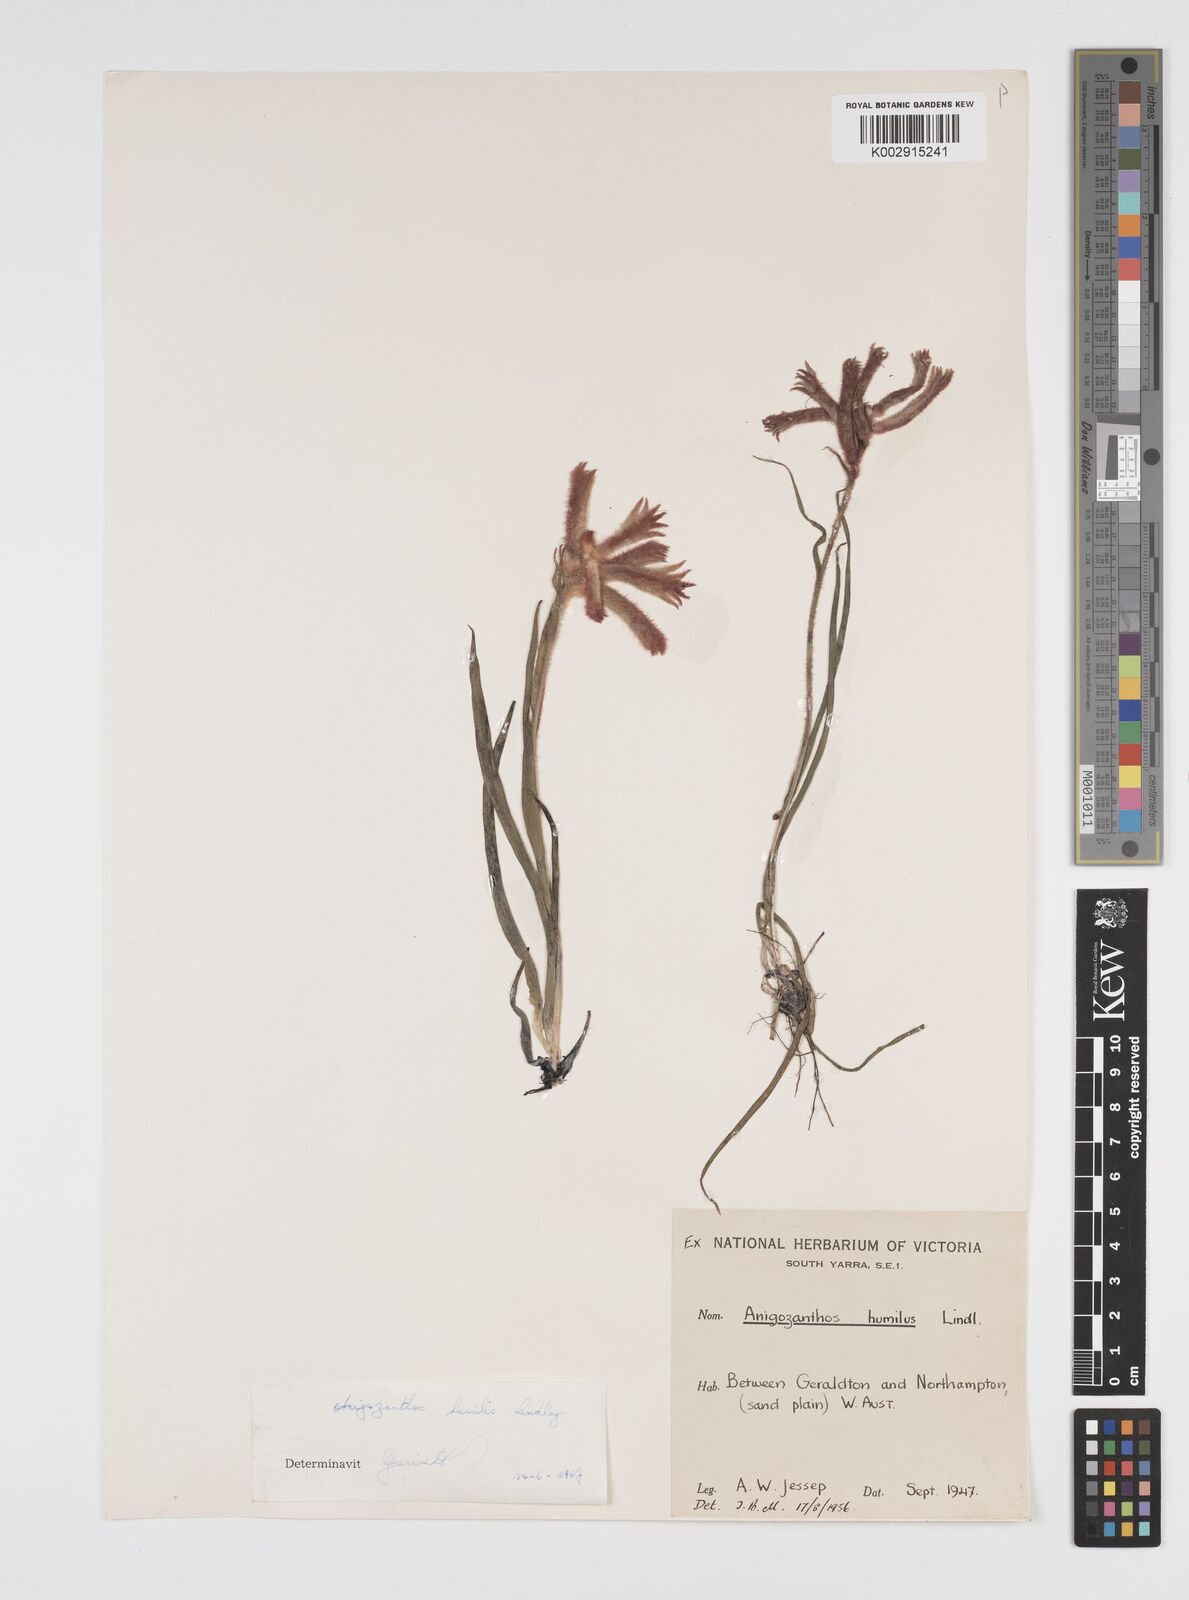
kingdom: Plantae
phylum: Tracheophyta
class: Liliopsida
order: Commelinales
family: Haemodoraceae
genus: Anigozanthos
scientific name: Anigozanthos humilis
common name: Cat's-paw
